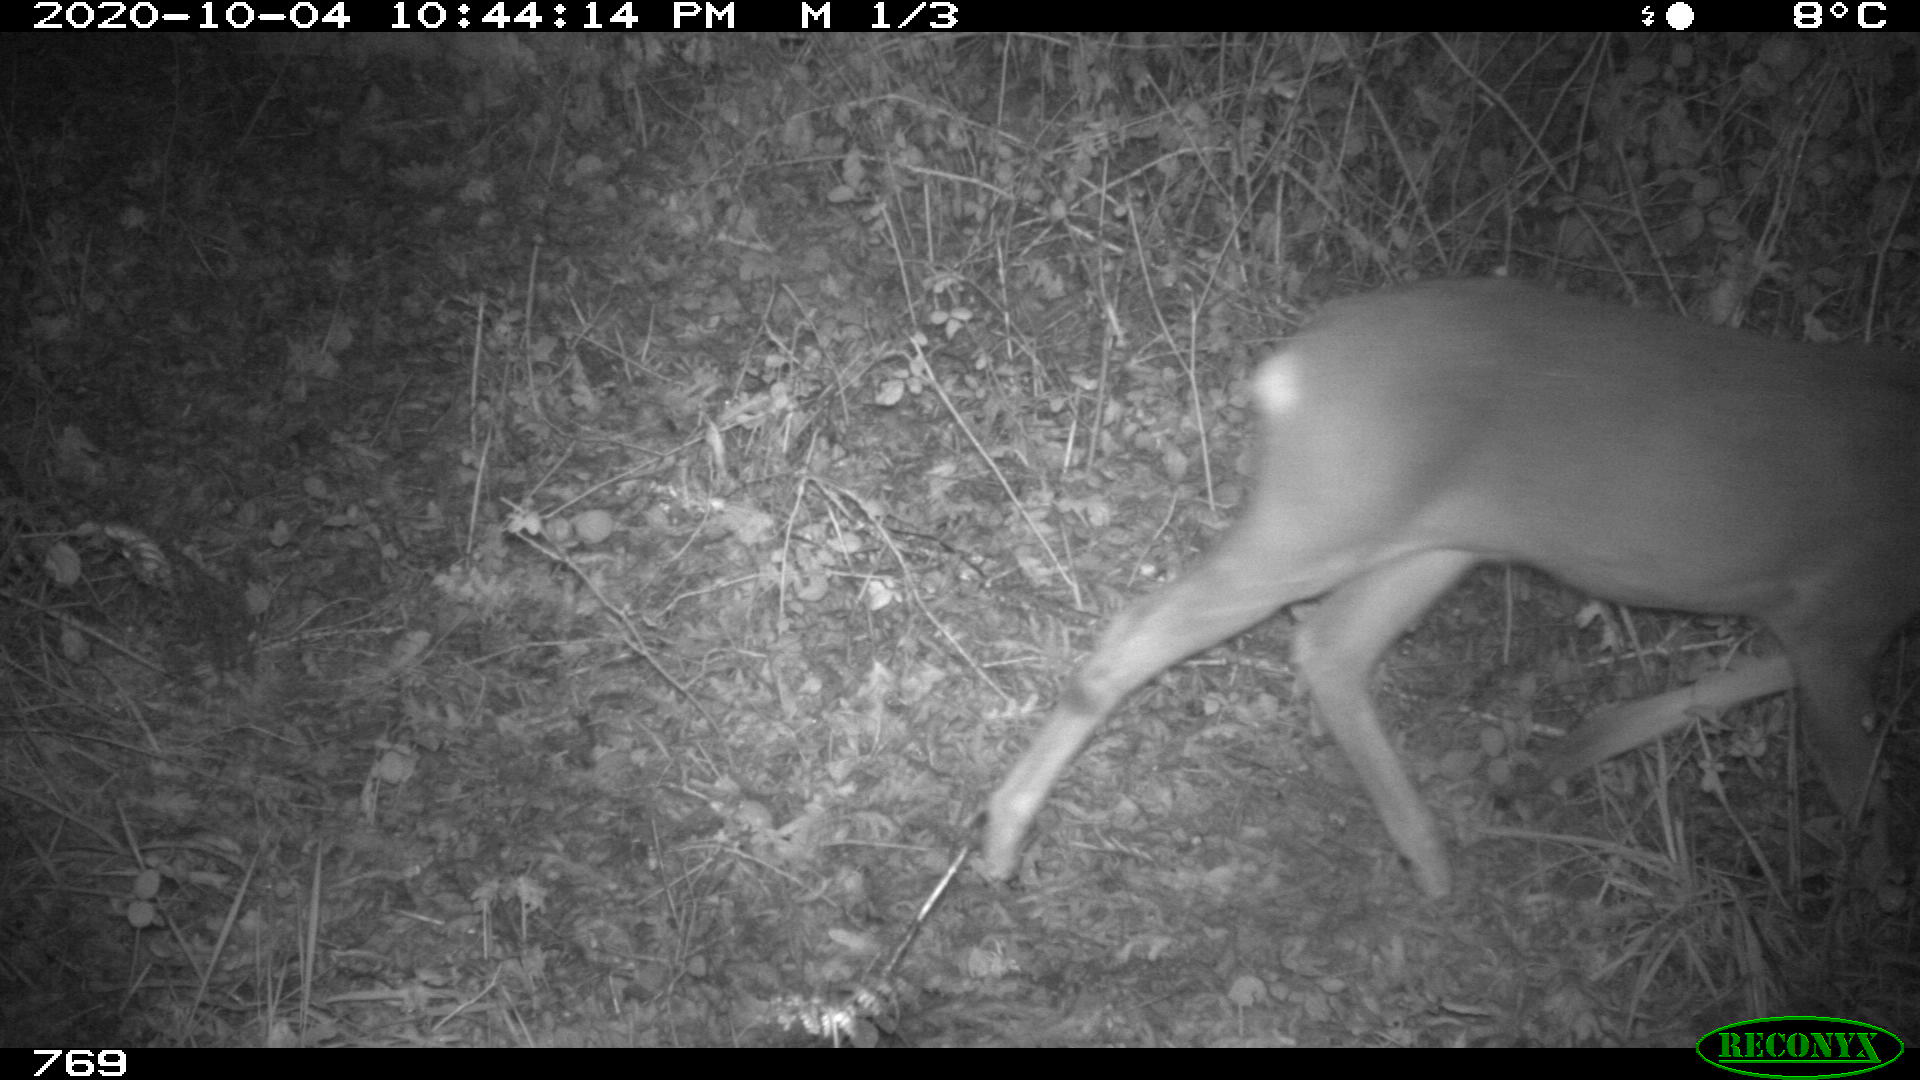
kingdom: Animalia
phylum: Chordata
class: Mammalia
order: Artiodactyla
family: Cervidae
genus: Capreolus
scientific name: Capreolus capreolus
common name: Western roe deer
